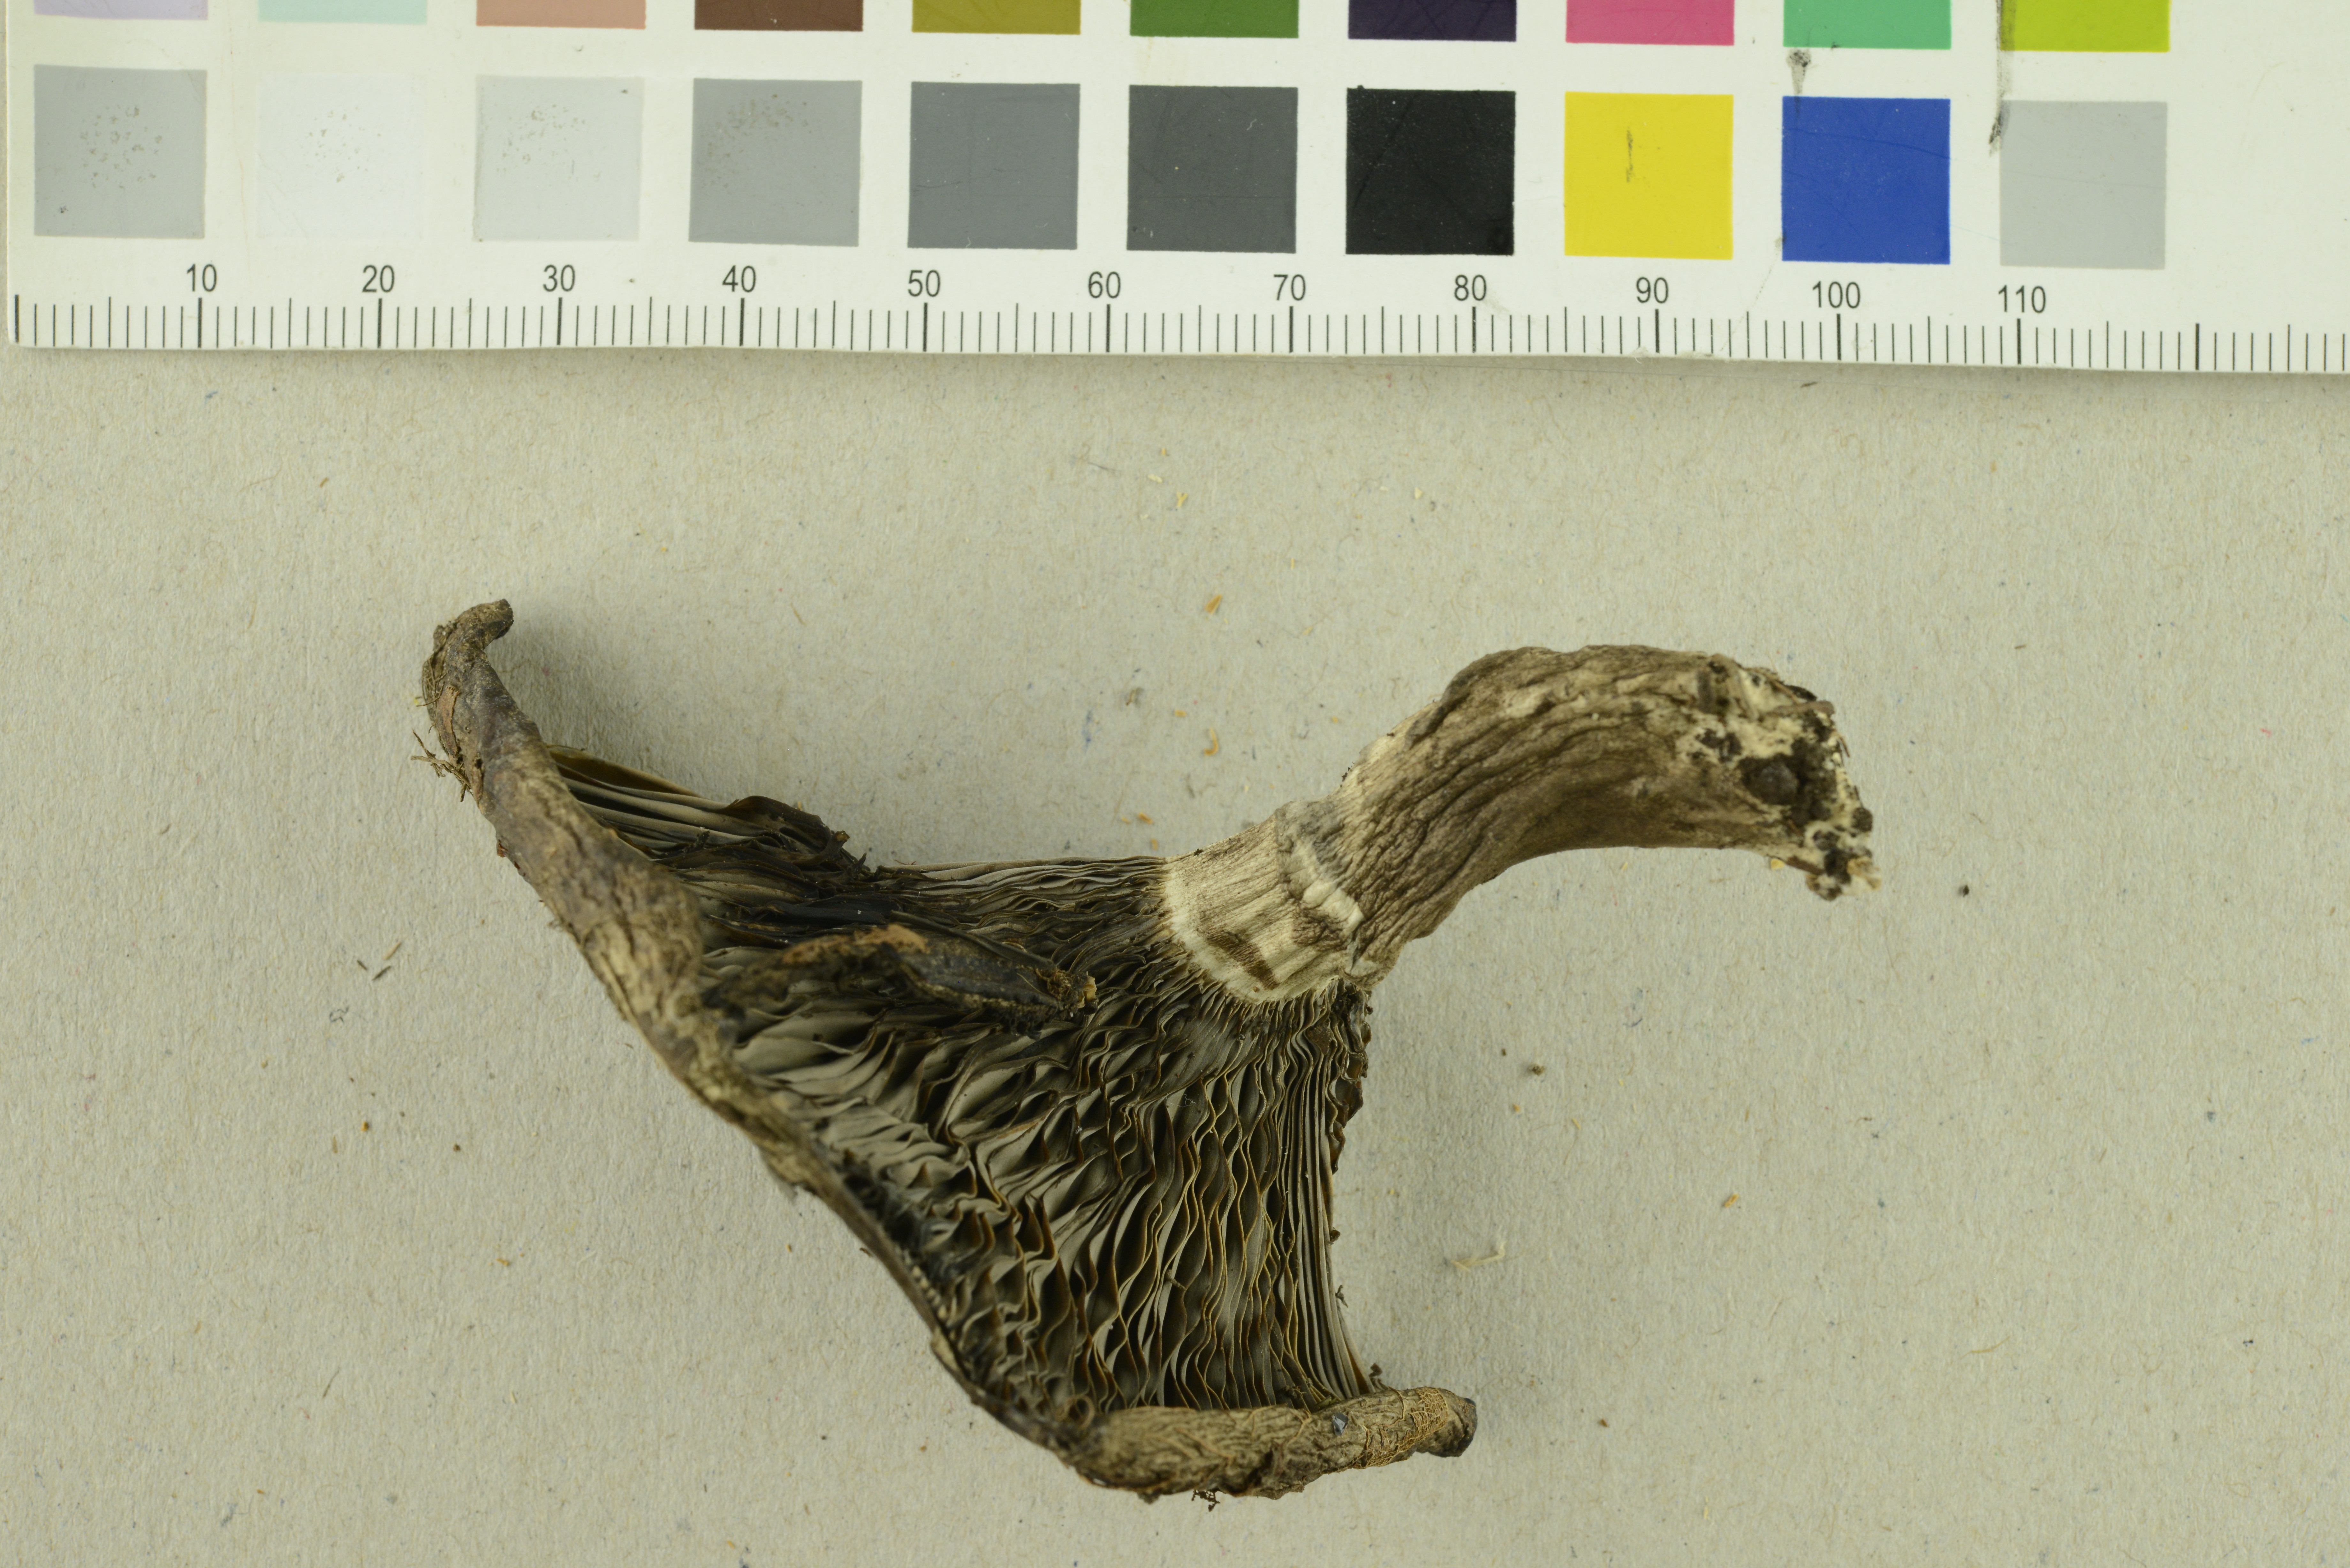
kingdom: Fungi
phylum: Basidiomycota
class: Agaricomycetes
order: Russulales
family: Russulaceae
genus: Russula
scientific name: Russula acrifolia
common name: Hotlips brittlegill
